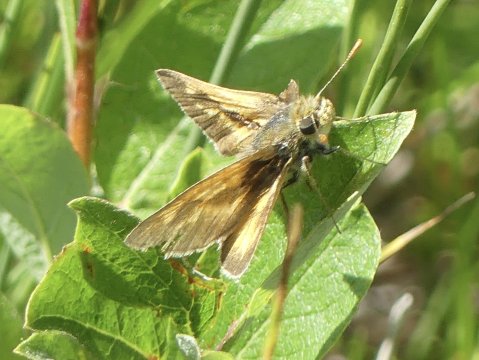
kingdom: Animalia
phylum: Arthropoda
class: Insecta
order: Lepidoptera
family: Hesperiidae
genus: Polites
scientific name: Polites
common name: Long Dash Skipper
